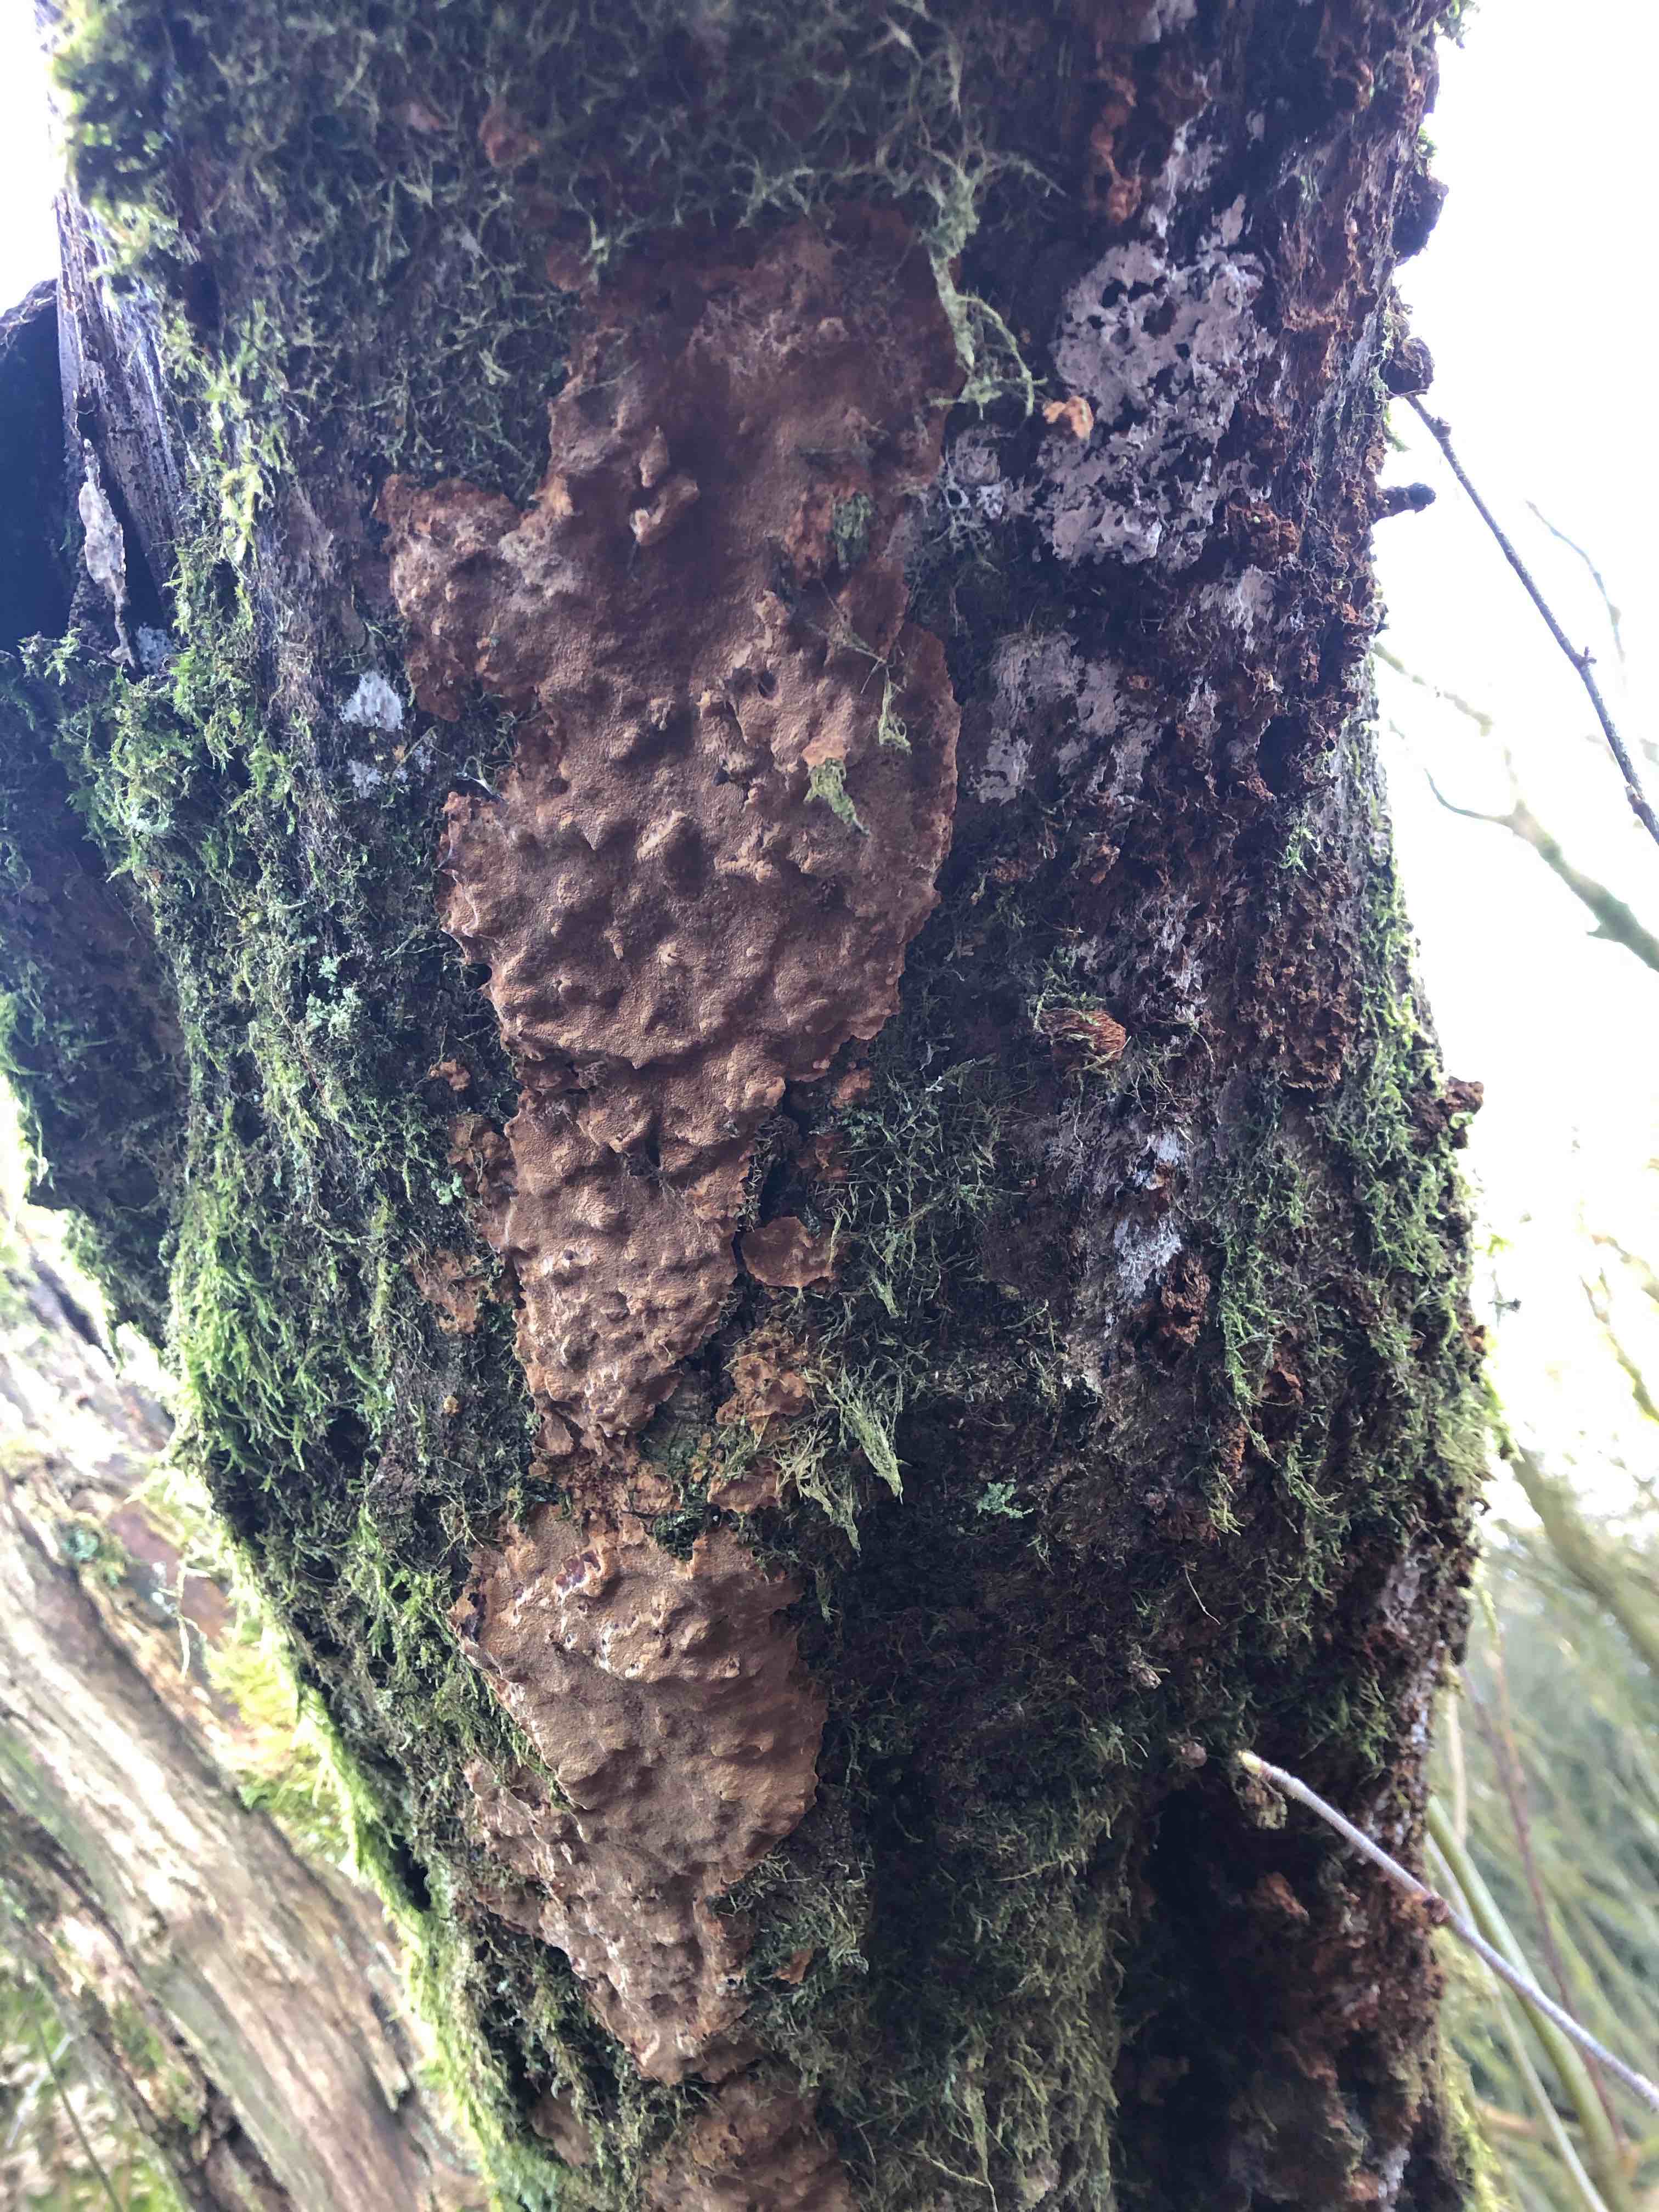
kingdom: Fungi
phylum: Basidiomycota
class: Agaricomycetes
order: Hymenochaetales
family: Hymenochaetaceae
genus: Fuscoporia
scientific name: Fuscoporia
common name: Ildporesvamp
